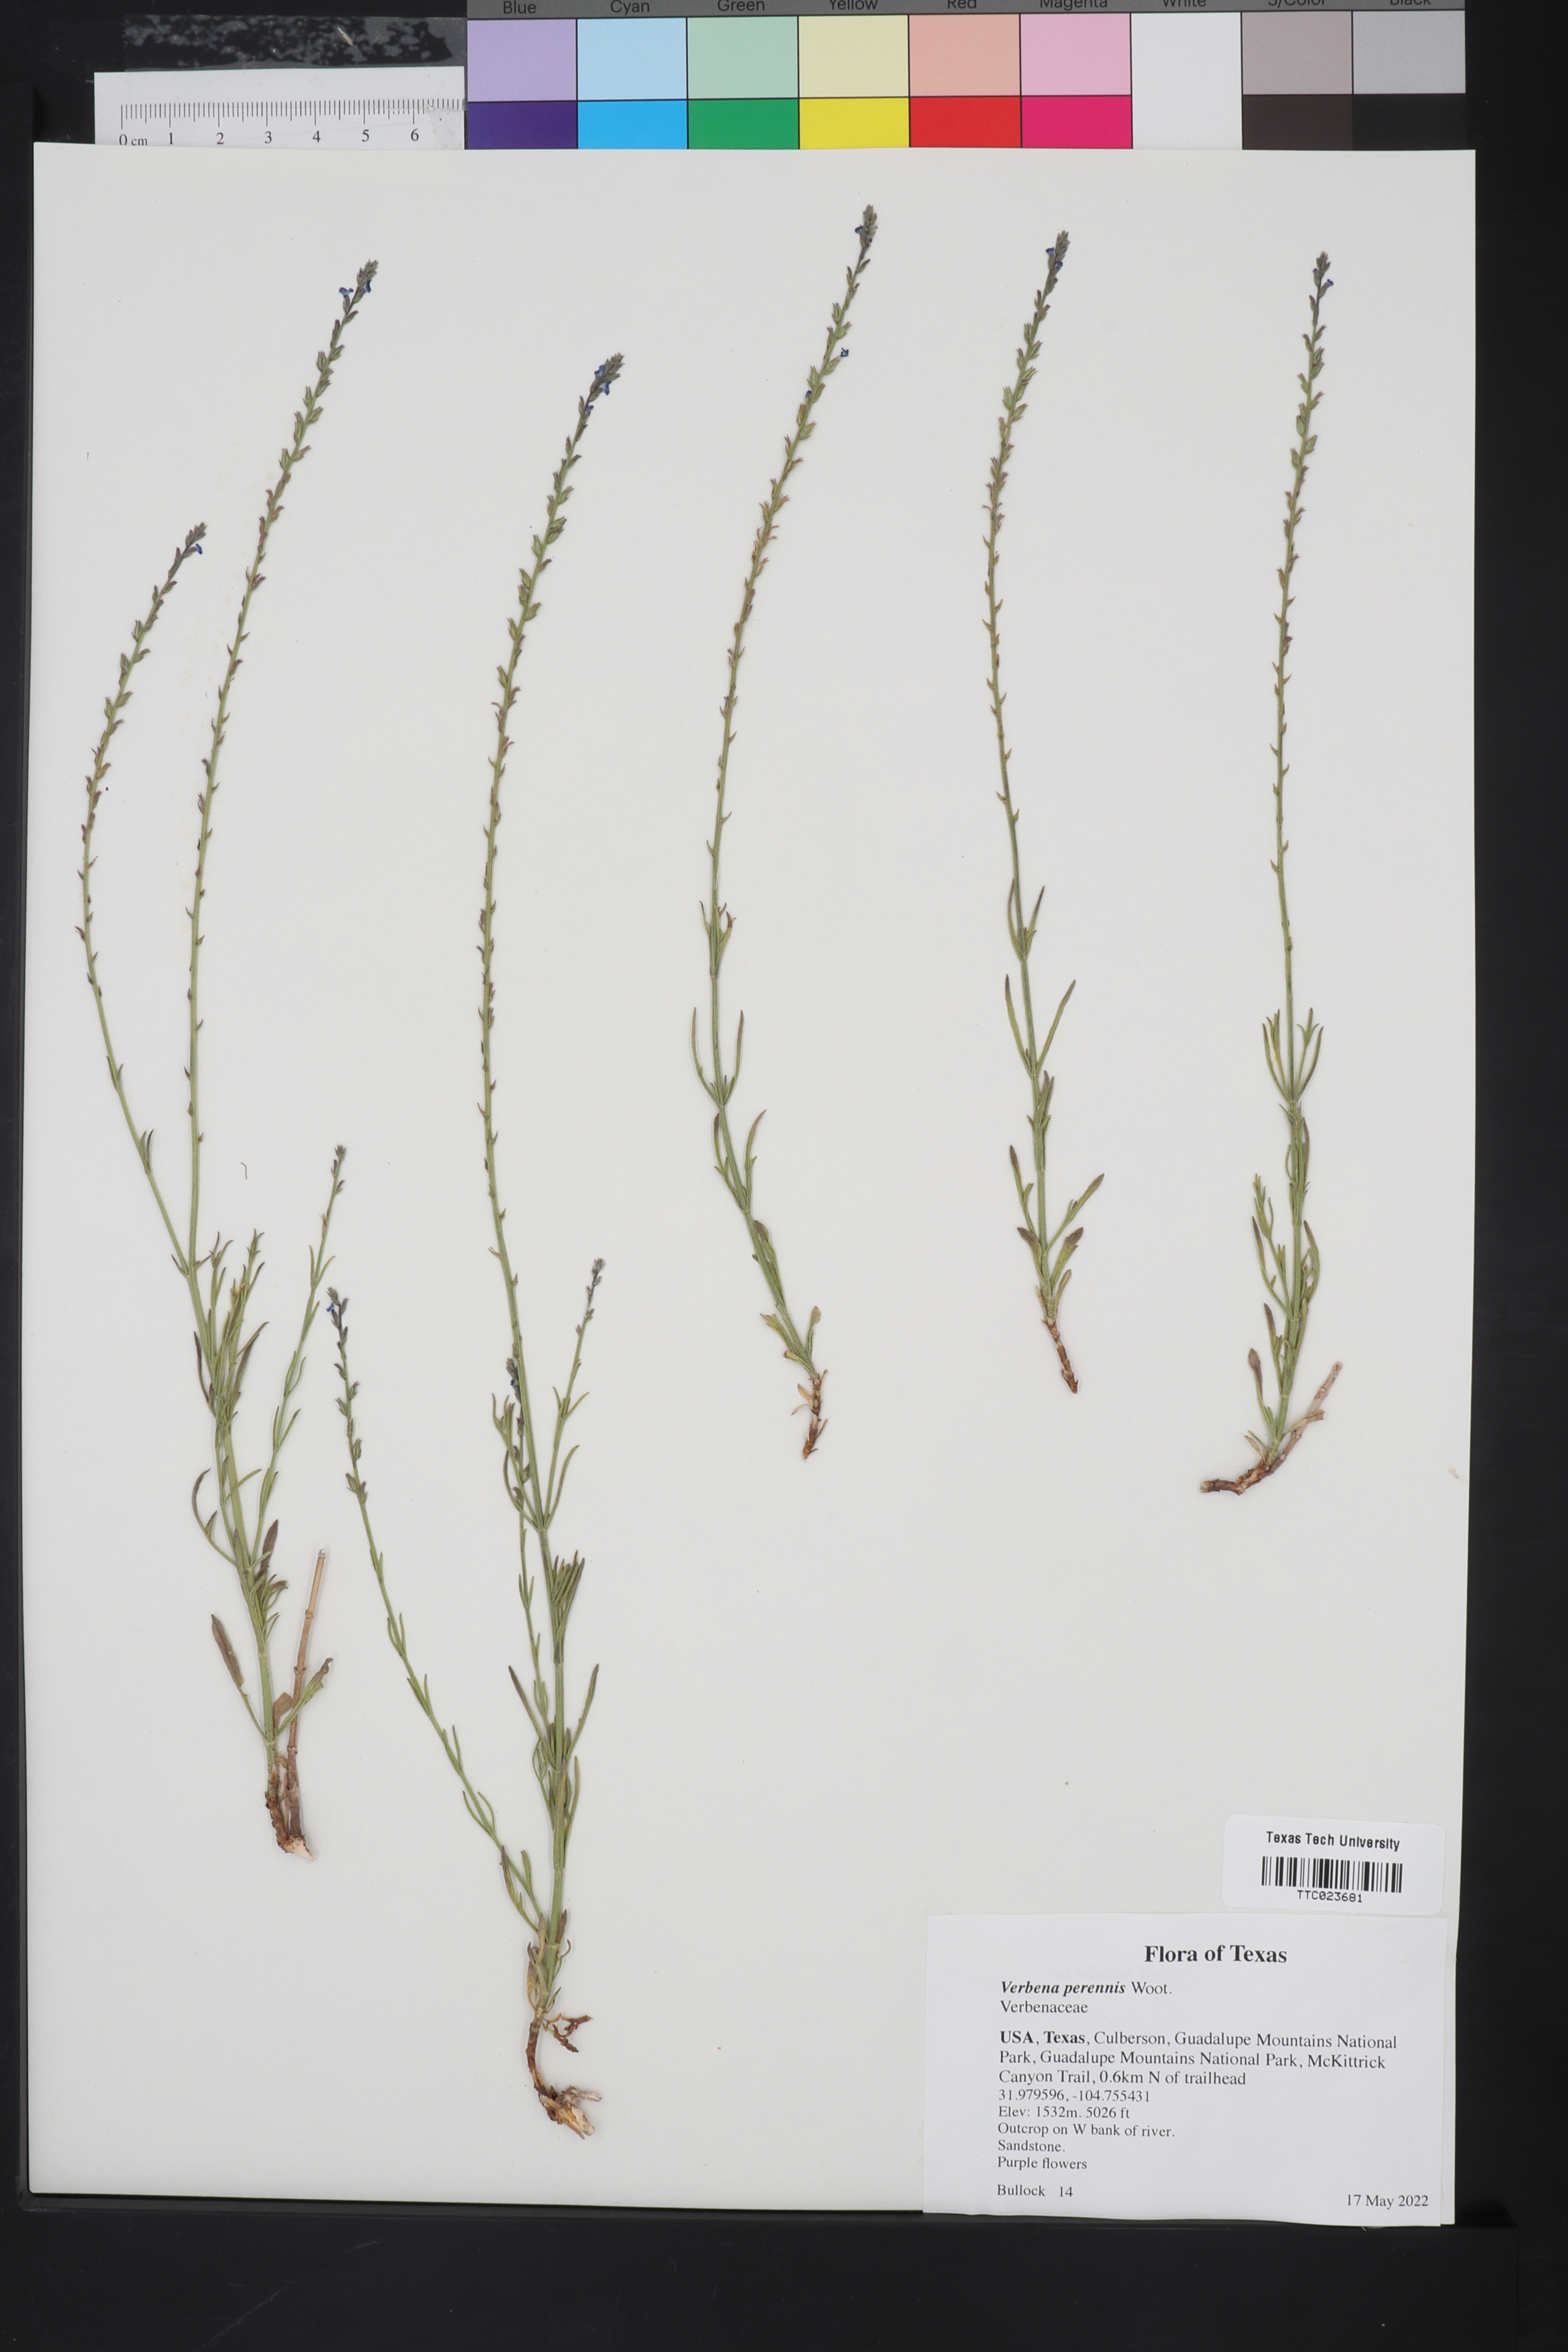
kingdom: Plantae
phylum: Tracheophyta
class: Magnoliopsida
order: Lamiales
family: Verbenaceae
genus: Verbena
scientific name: Verbena perennis
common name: Pin-leaf vervain
